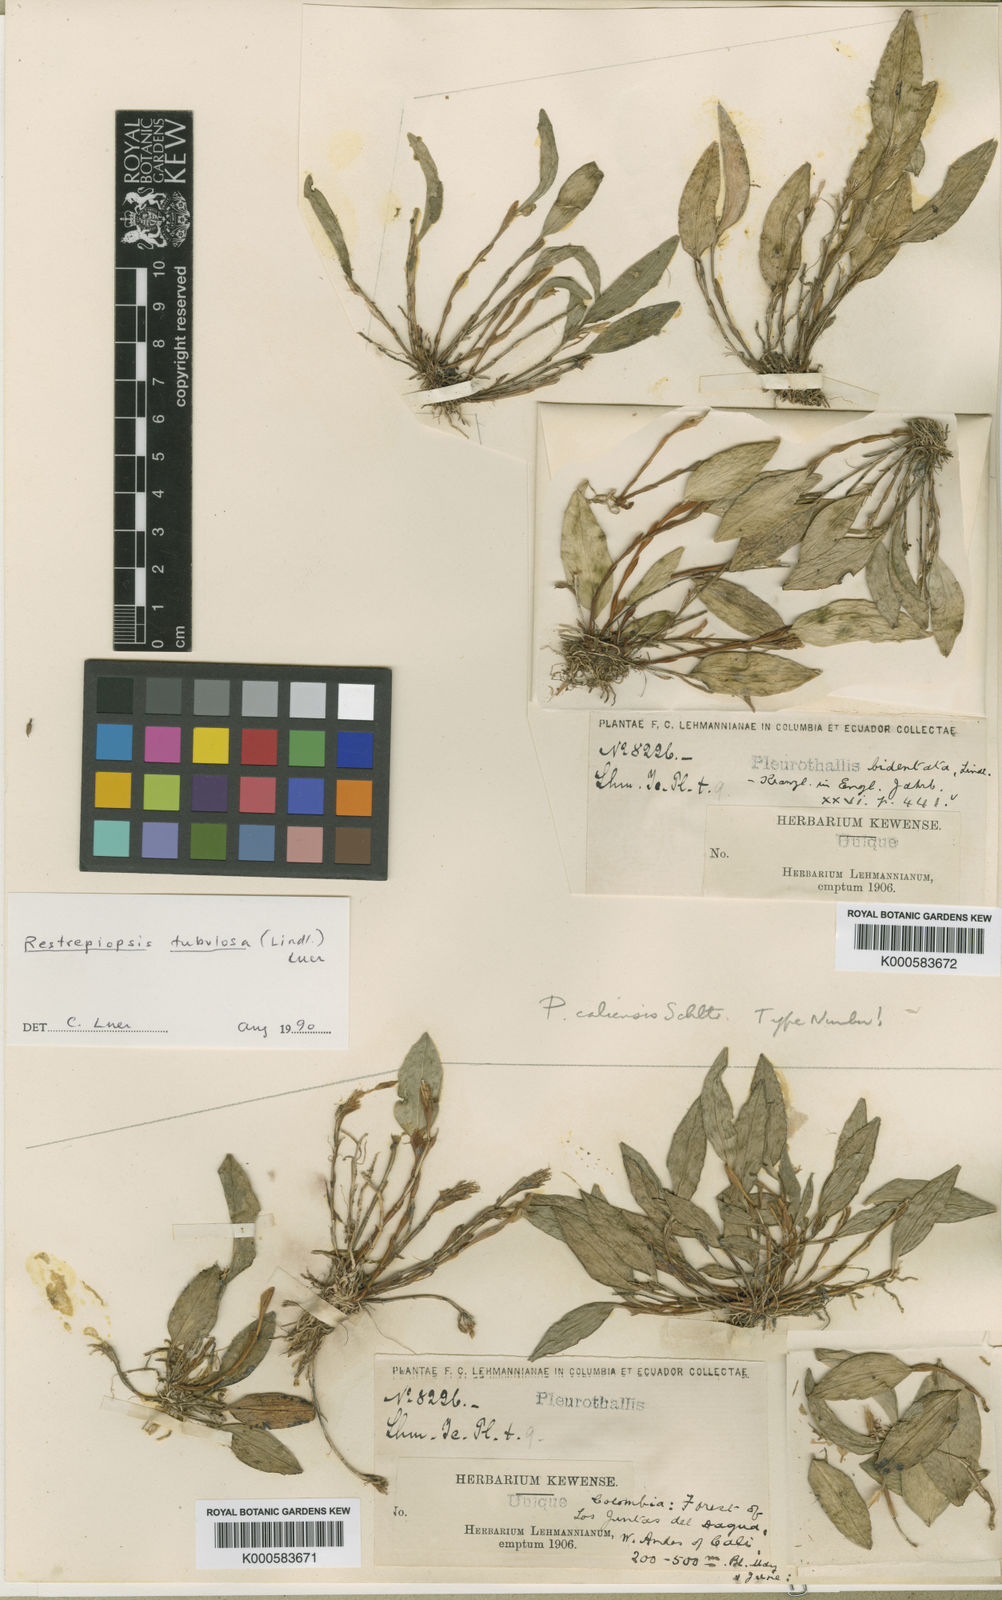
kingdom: Plantae
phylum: Tracheophyta
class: Liliopsida
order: Asparagales
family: Orchidaceae
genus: Pleurothallopsis
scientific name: Pleurothallopsis tubulosa
